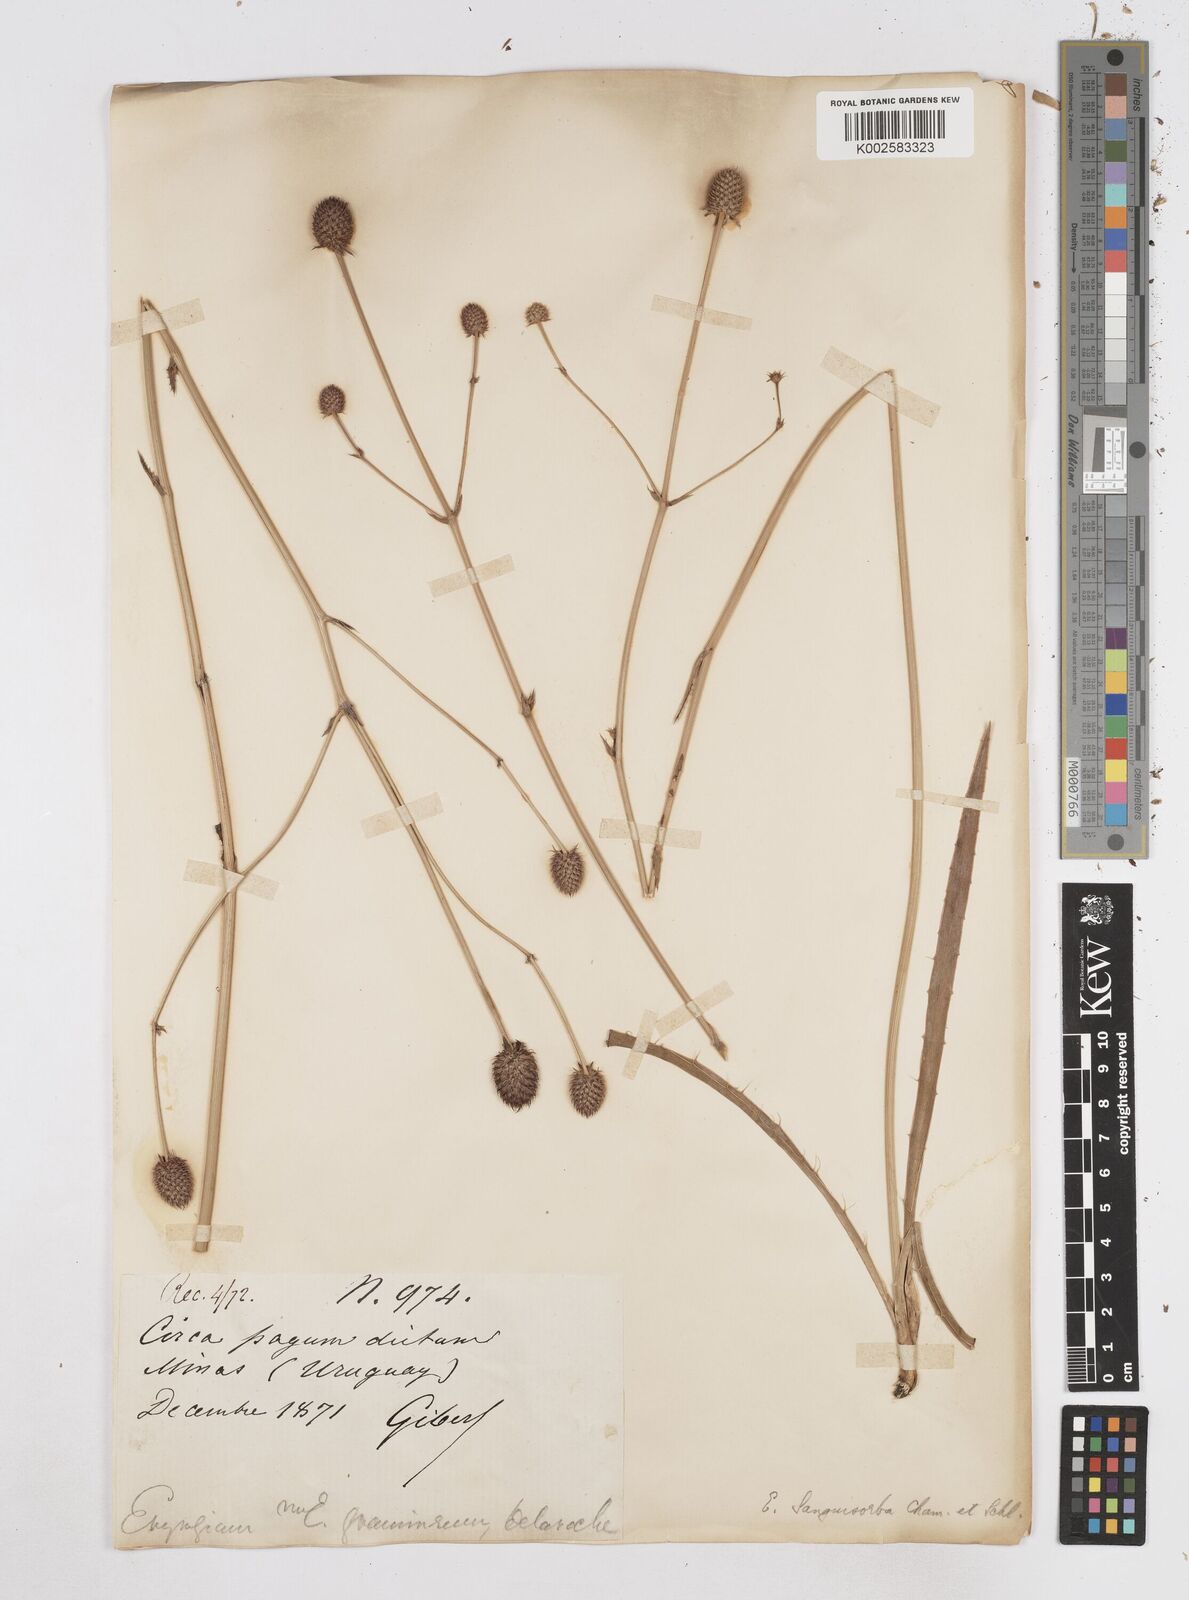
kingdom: Plantae
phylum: Tracheophyta
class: Magnoliopsida
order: Apiales
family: Apiaceae
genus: Eryngium
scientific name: Eryngium sanguisorba
